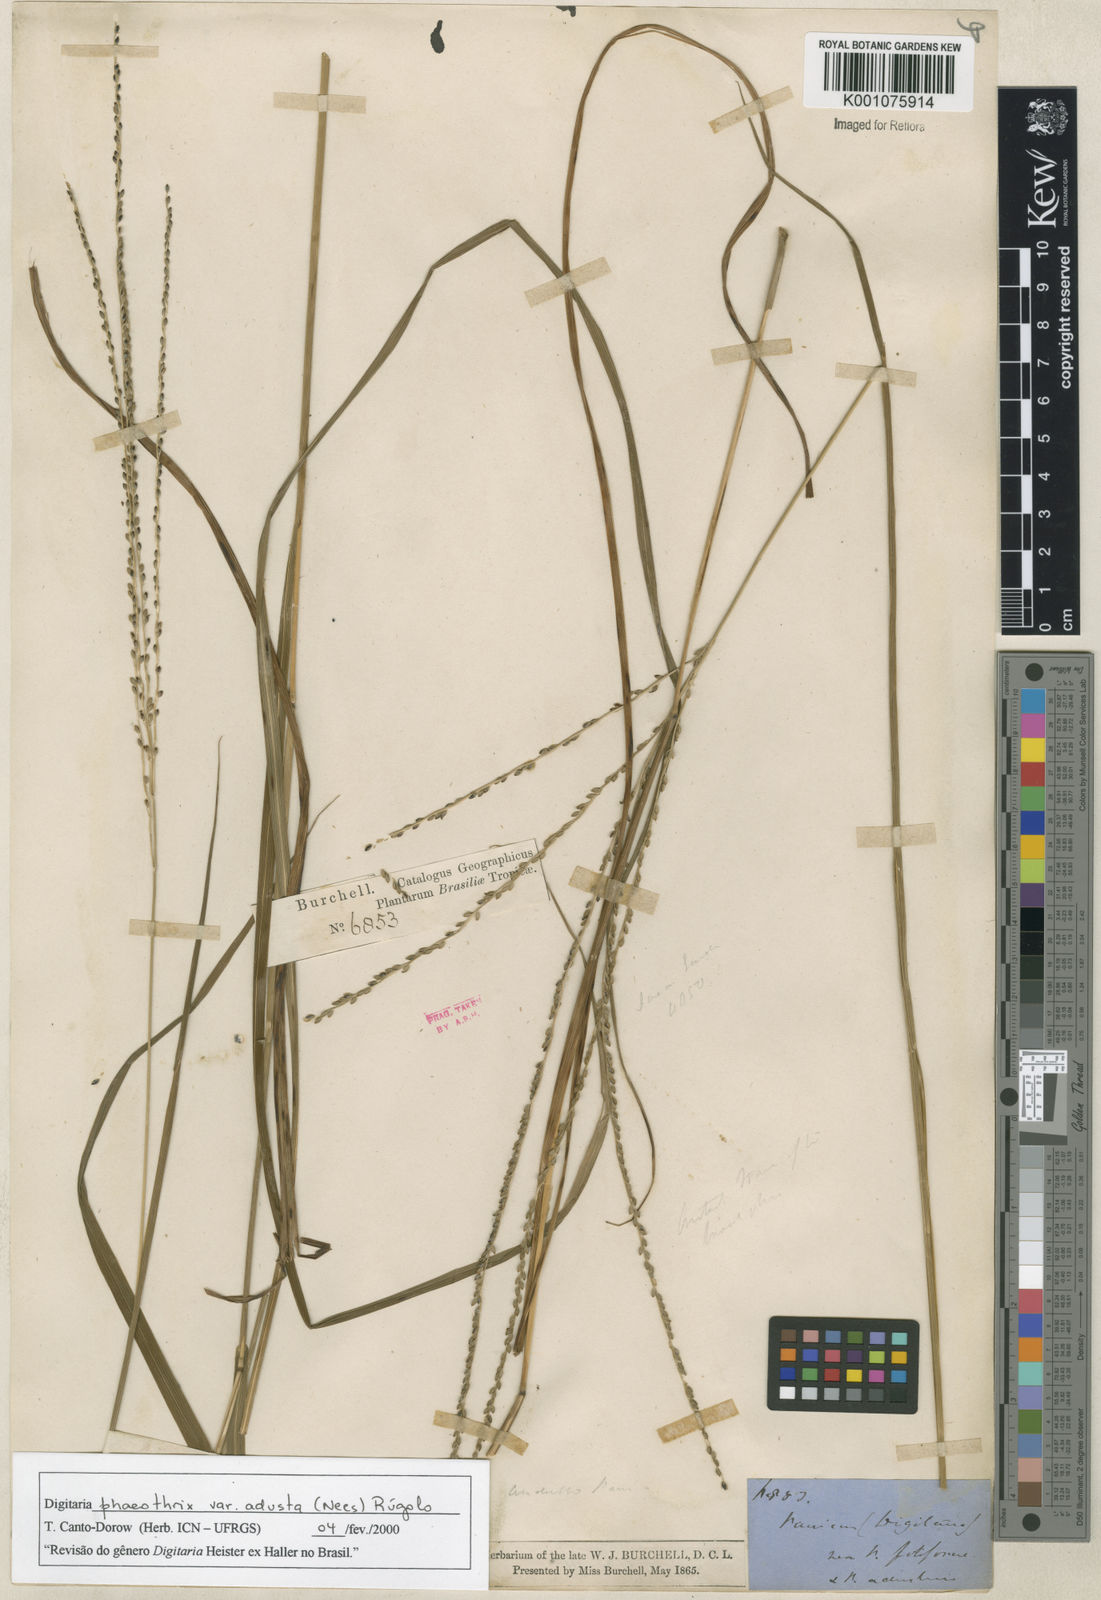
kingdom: Plantae
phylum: Tracheophyta
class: Liliopsida
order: Poales
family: Poaceae
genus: Digitaria
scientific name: Digitaria corynotricha
